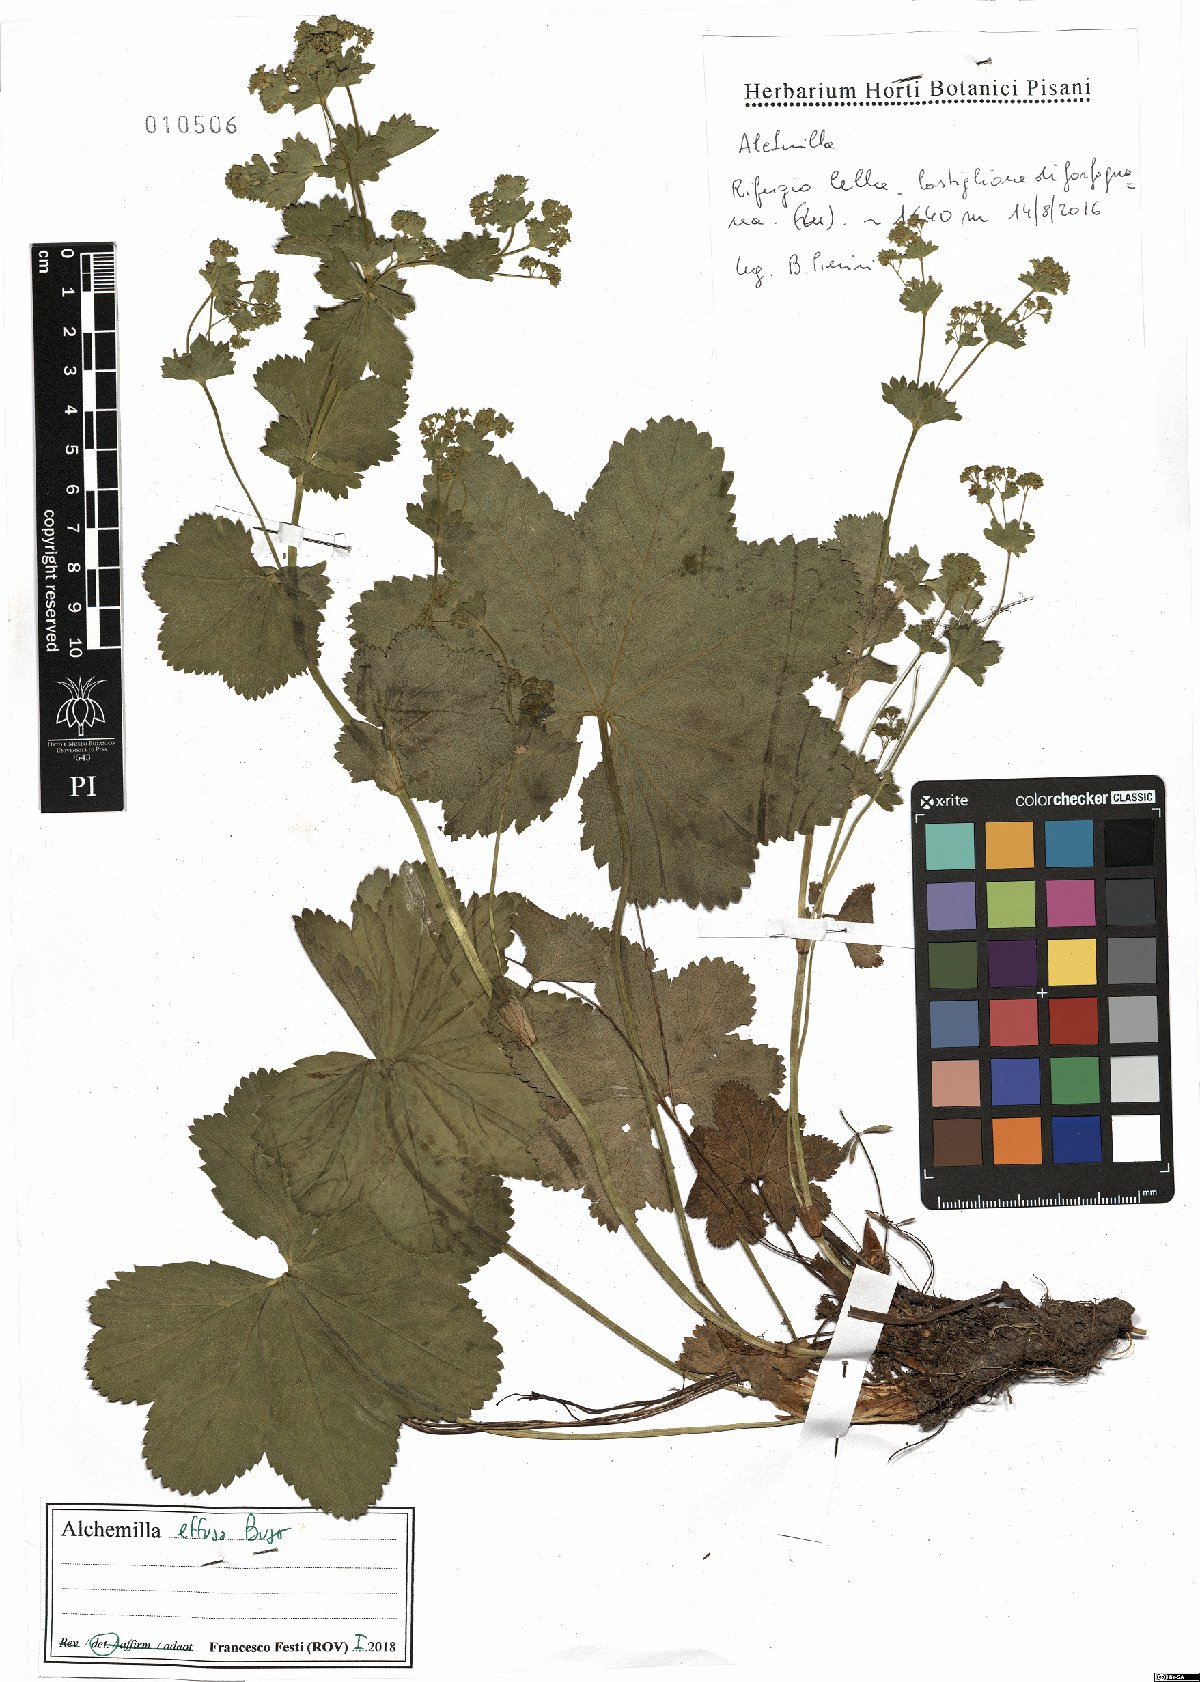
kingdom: Plantae
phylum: Tracheophyta
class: Magnoliopsida
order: Rosales
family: Rosaceae
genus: Alchemilla
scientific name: Alchemilla effusa
